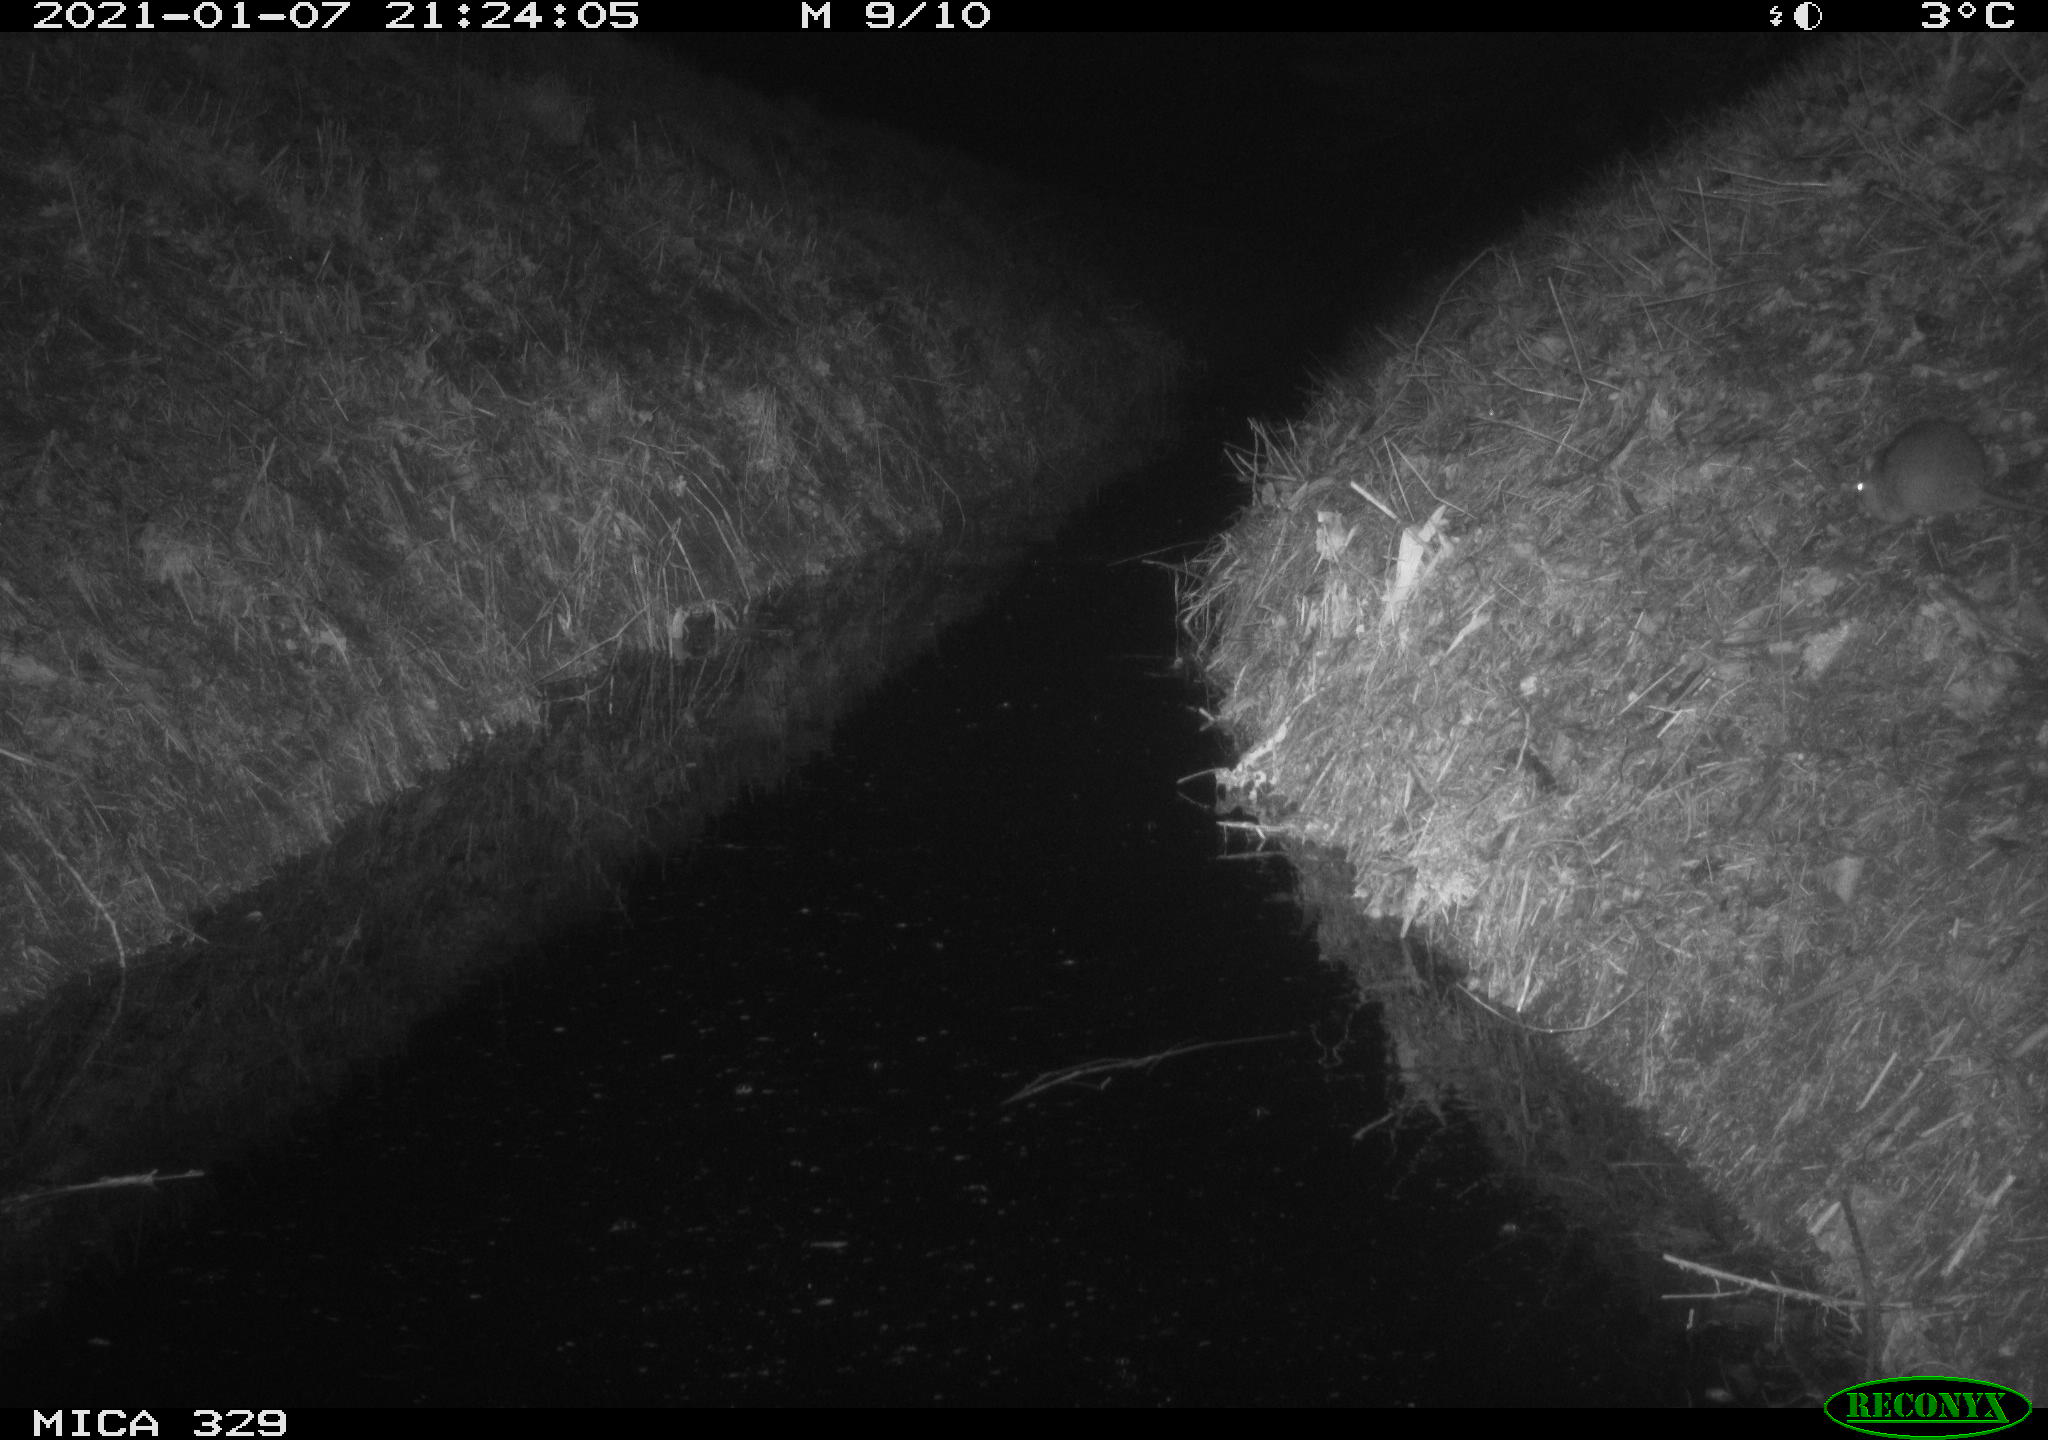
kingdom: Animalia
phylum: Chordata
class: Mammalia
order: Rodentia
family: Muridae
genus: Rattus
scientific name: Rattus norvegicus
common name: Brown rat
